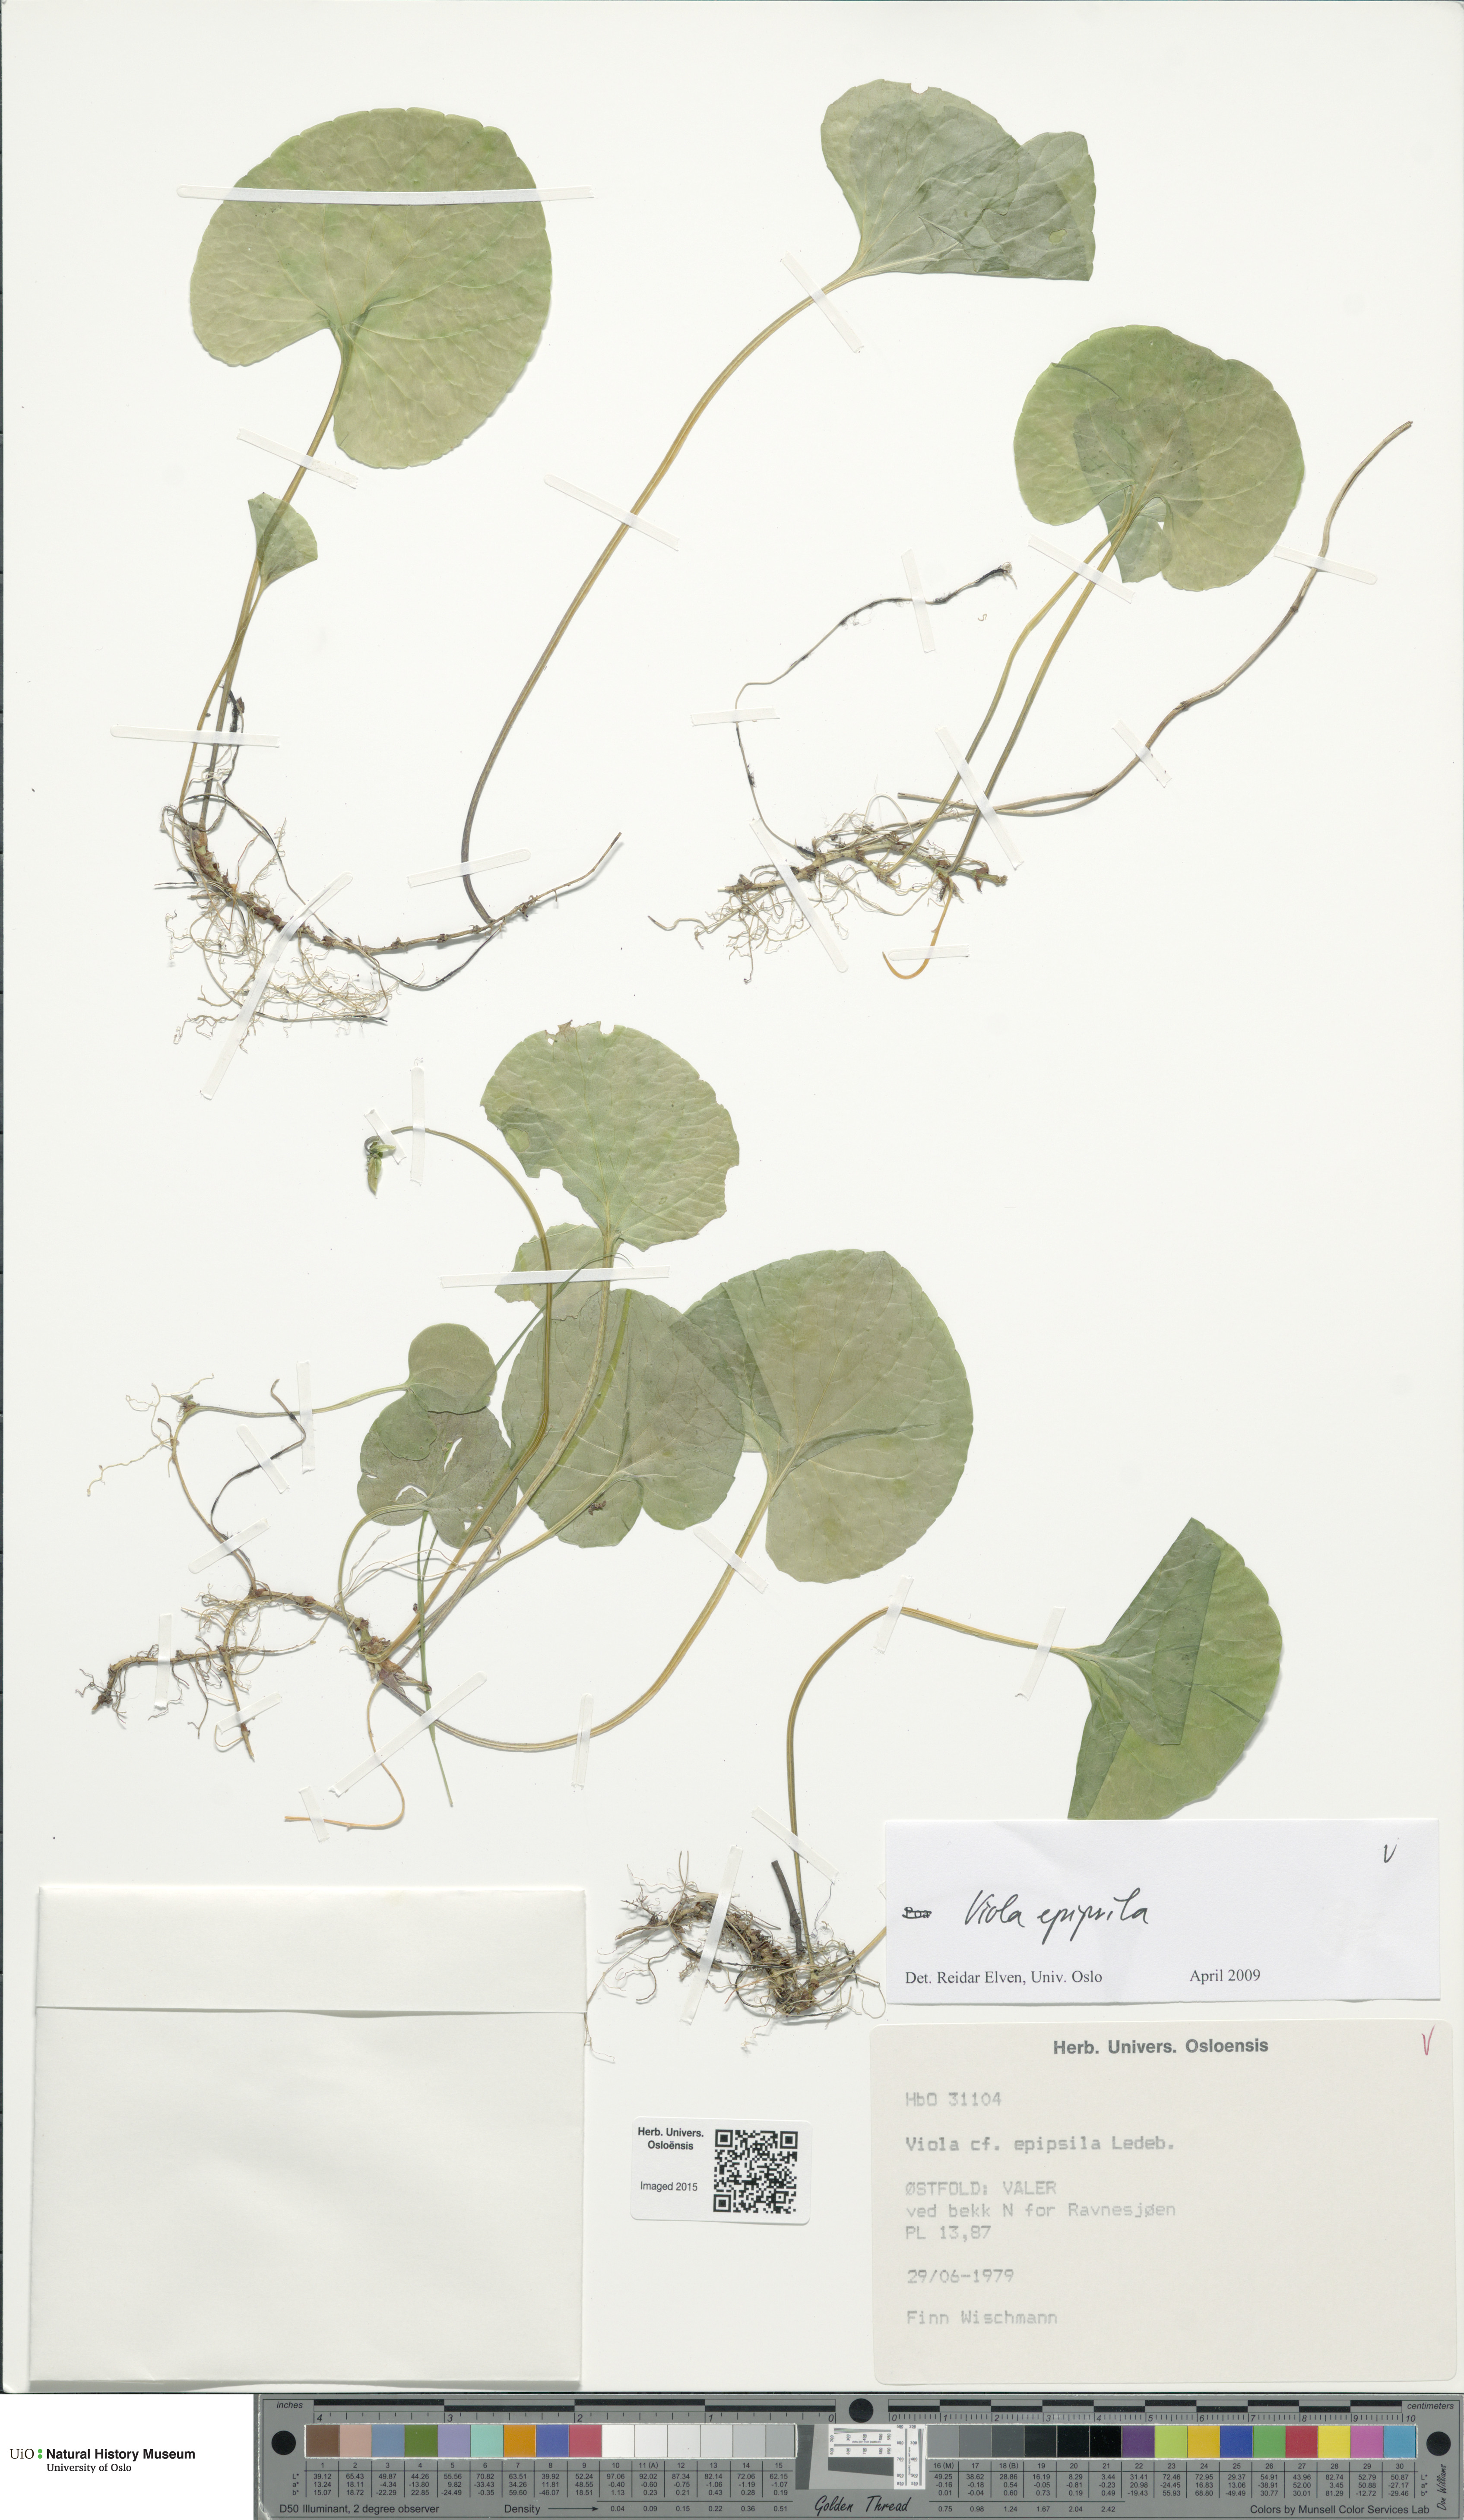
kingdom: Plantae
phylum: Tracheophyta
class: Magnoliopsida
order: Malpighiales
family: Violaceae
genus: Viola
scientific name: Viola epipsila
